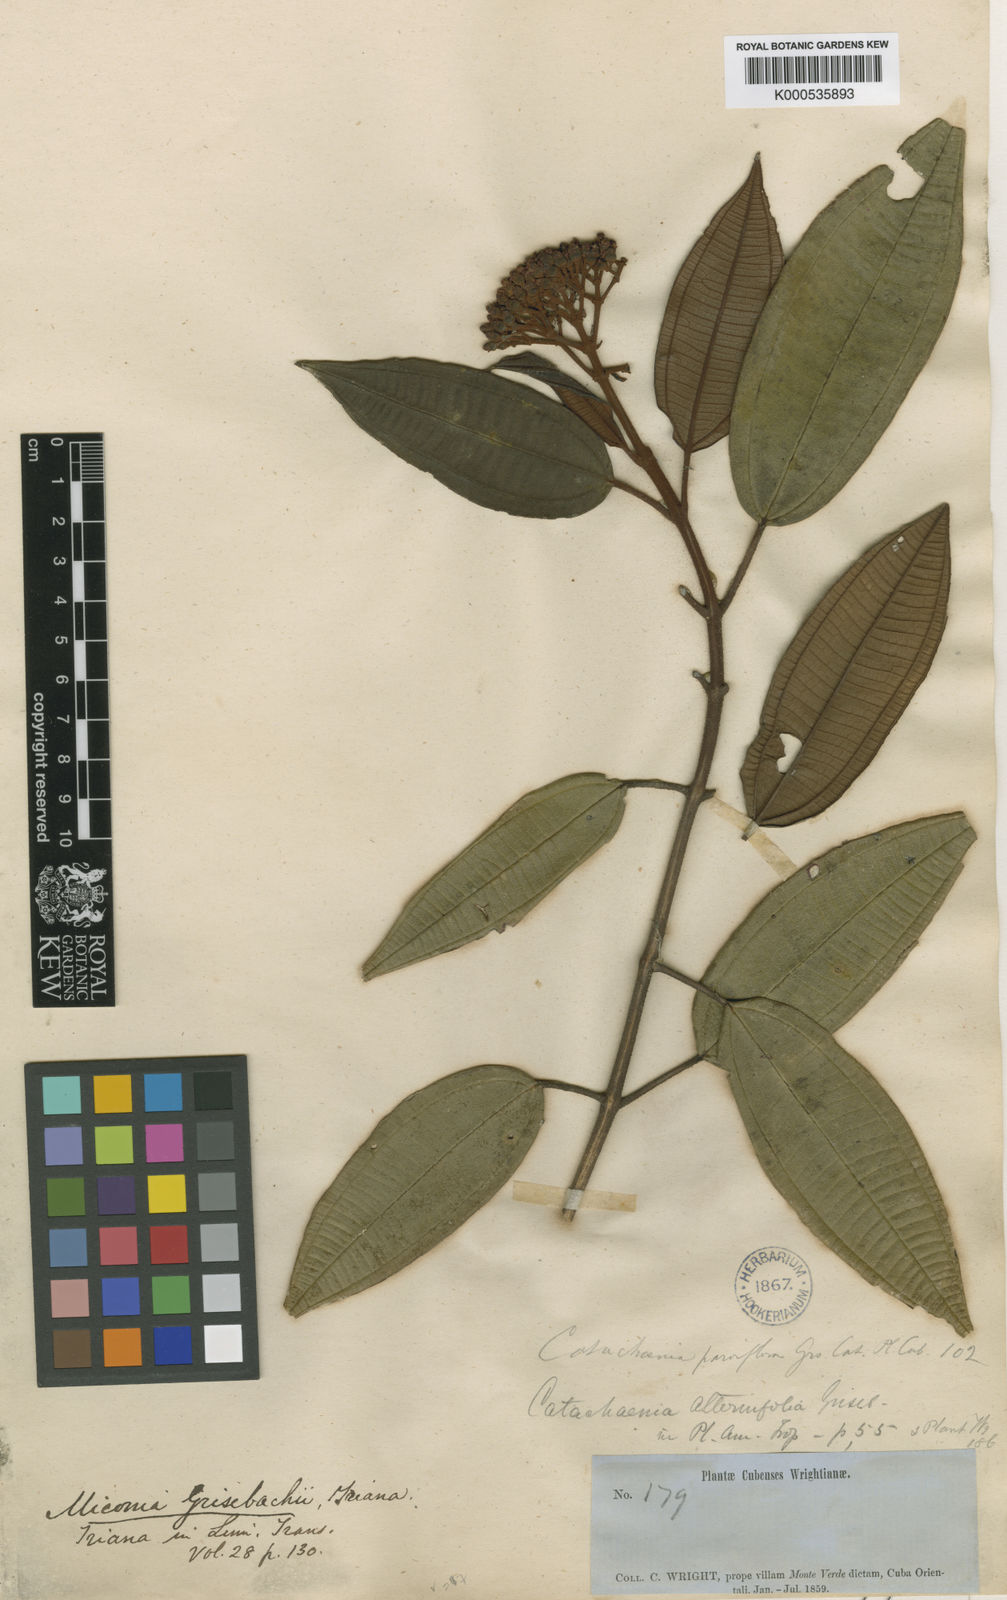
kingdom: Plantae
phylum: Tracheophyta
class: Magnoliopsida
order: Myrtales
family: Melastomataceae
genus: Miconia
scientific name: Miconia alternifolia
